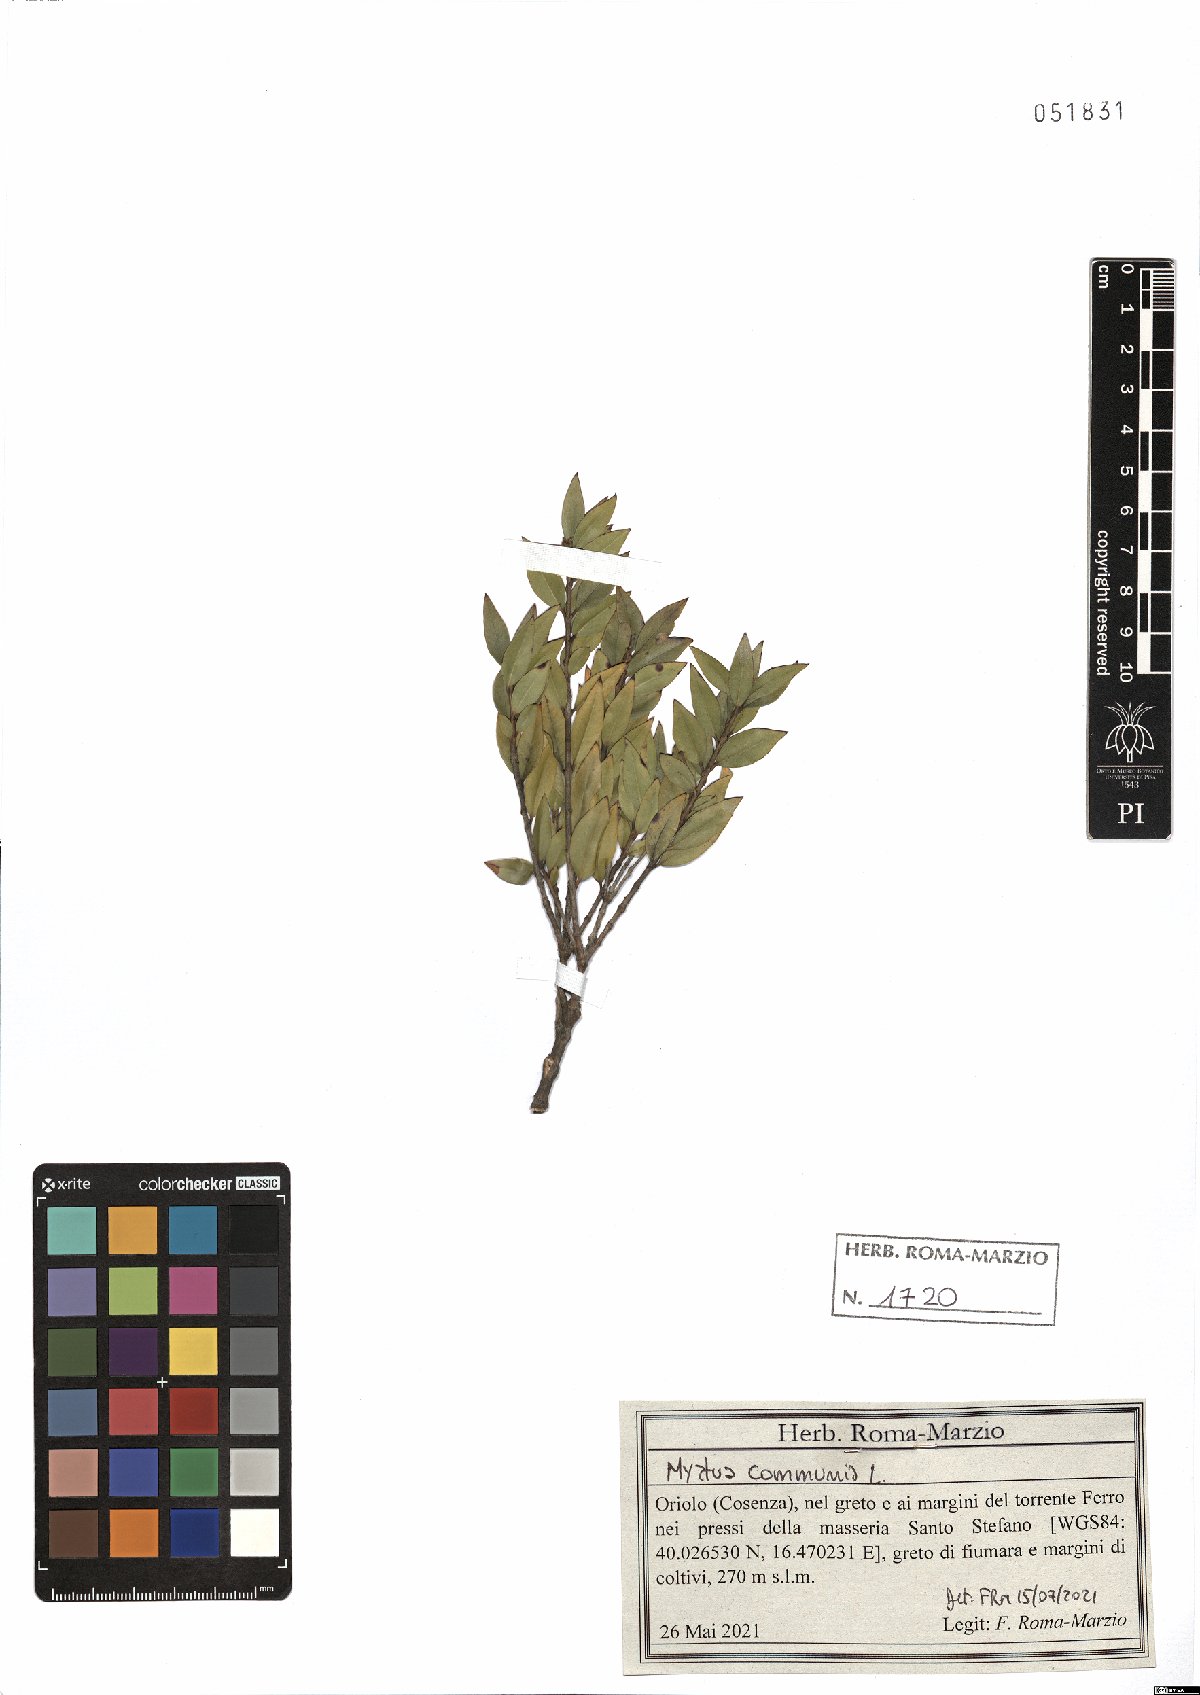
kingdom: Plantae
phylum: Tracheophyta
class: Magnoliopsida
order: Myrtales
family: Myrtaceae
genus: Myrtus
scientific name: Myrtus communis
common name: Myrtle
